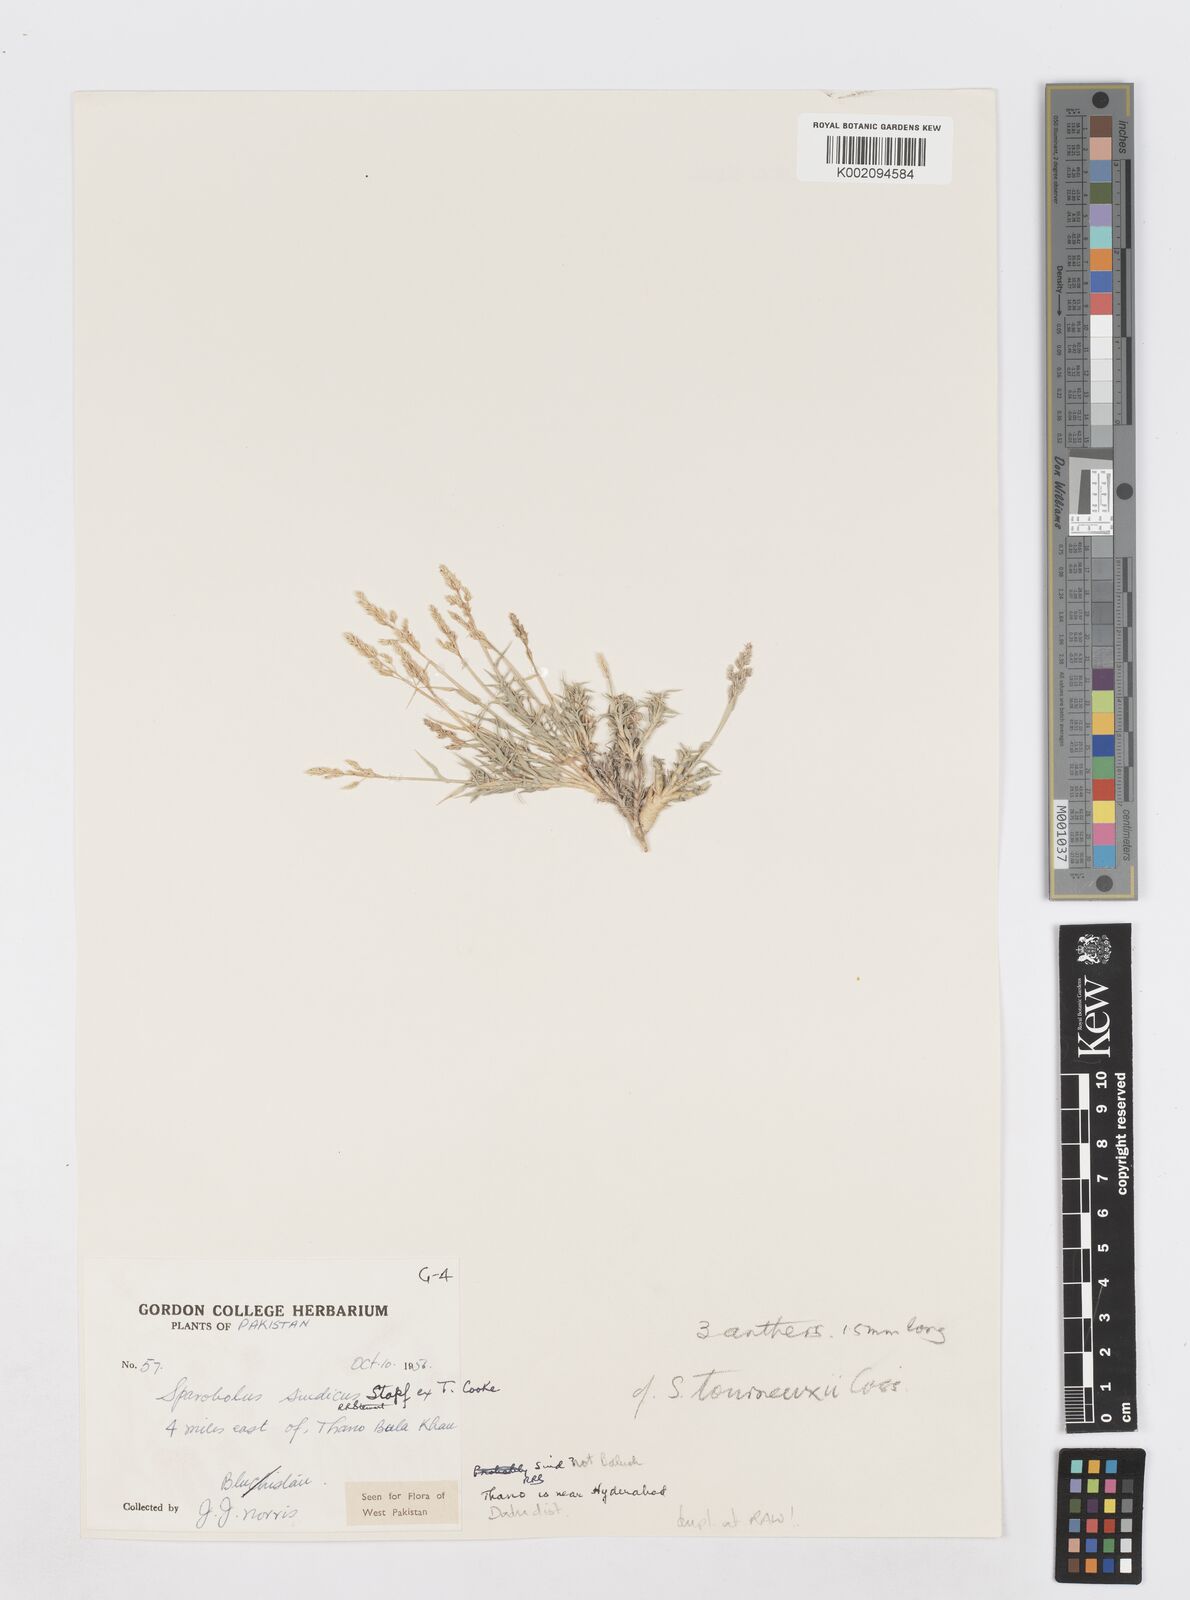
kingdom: Plantae
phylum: Tracheophyta
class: Liliopsida
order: Poales
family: Poaceae
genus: Sporobolus
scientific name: Sporobolus tourneuxii
